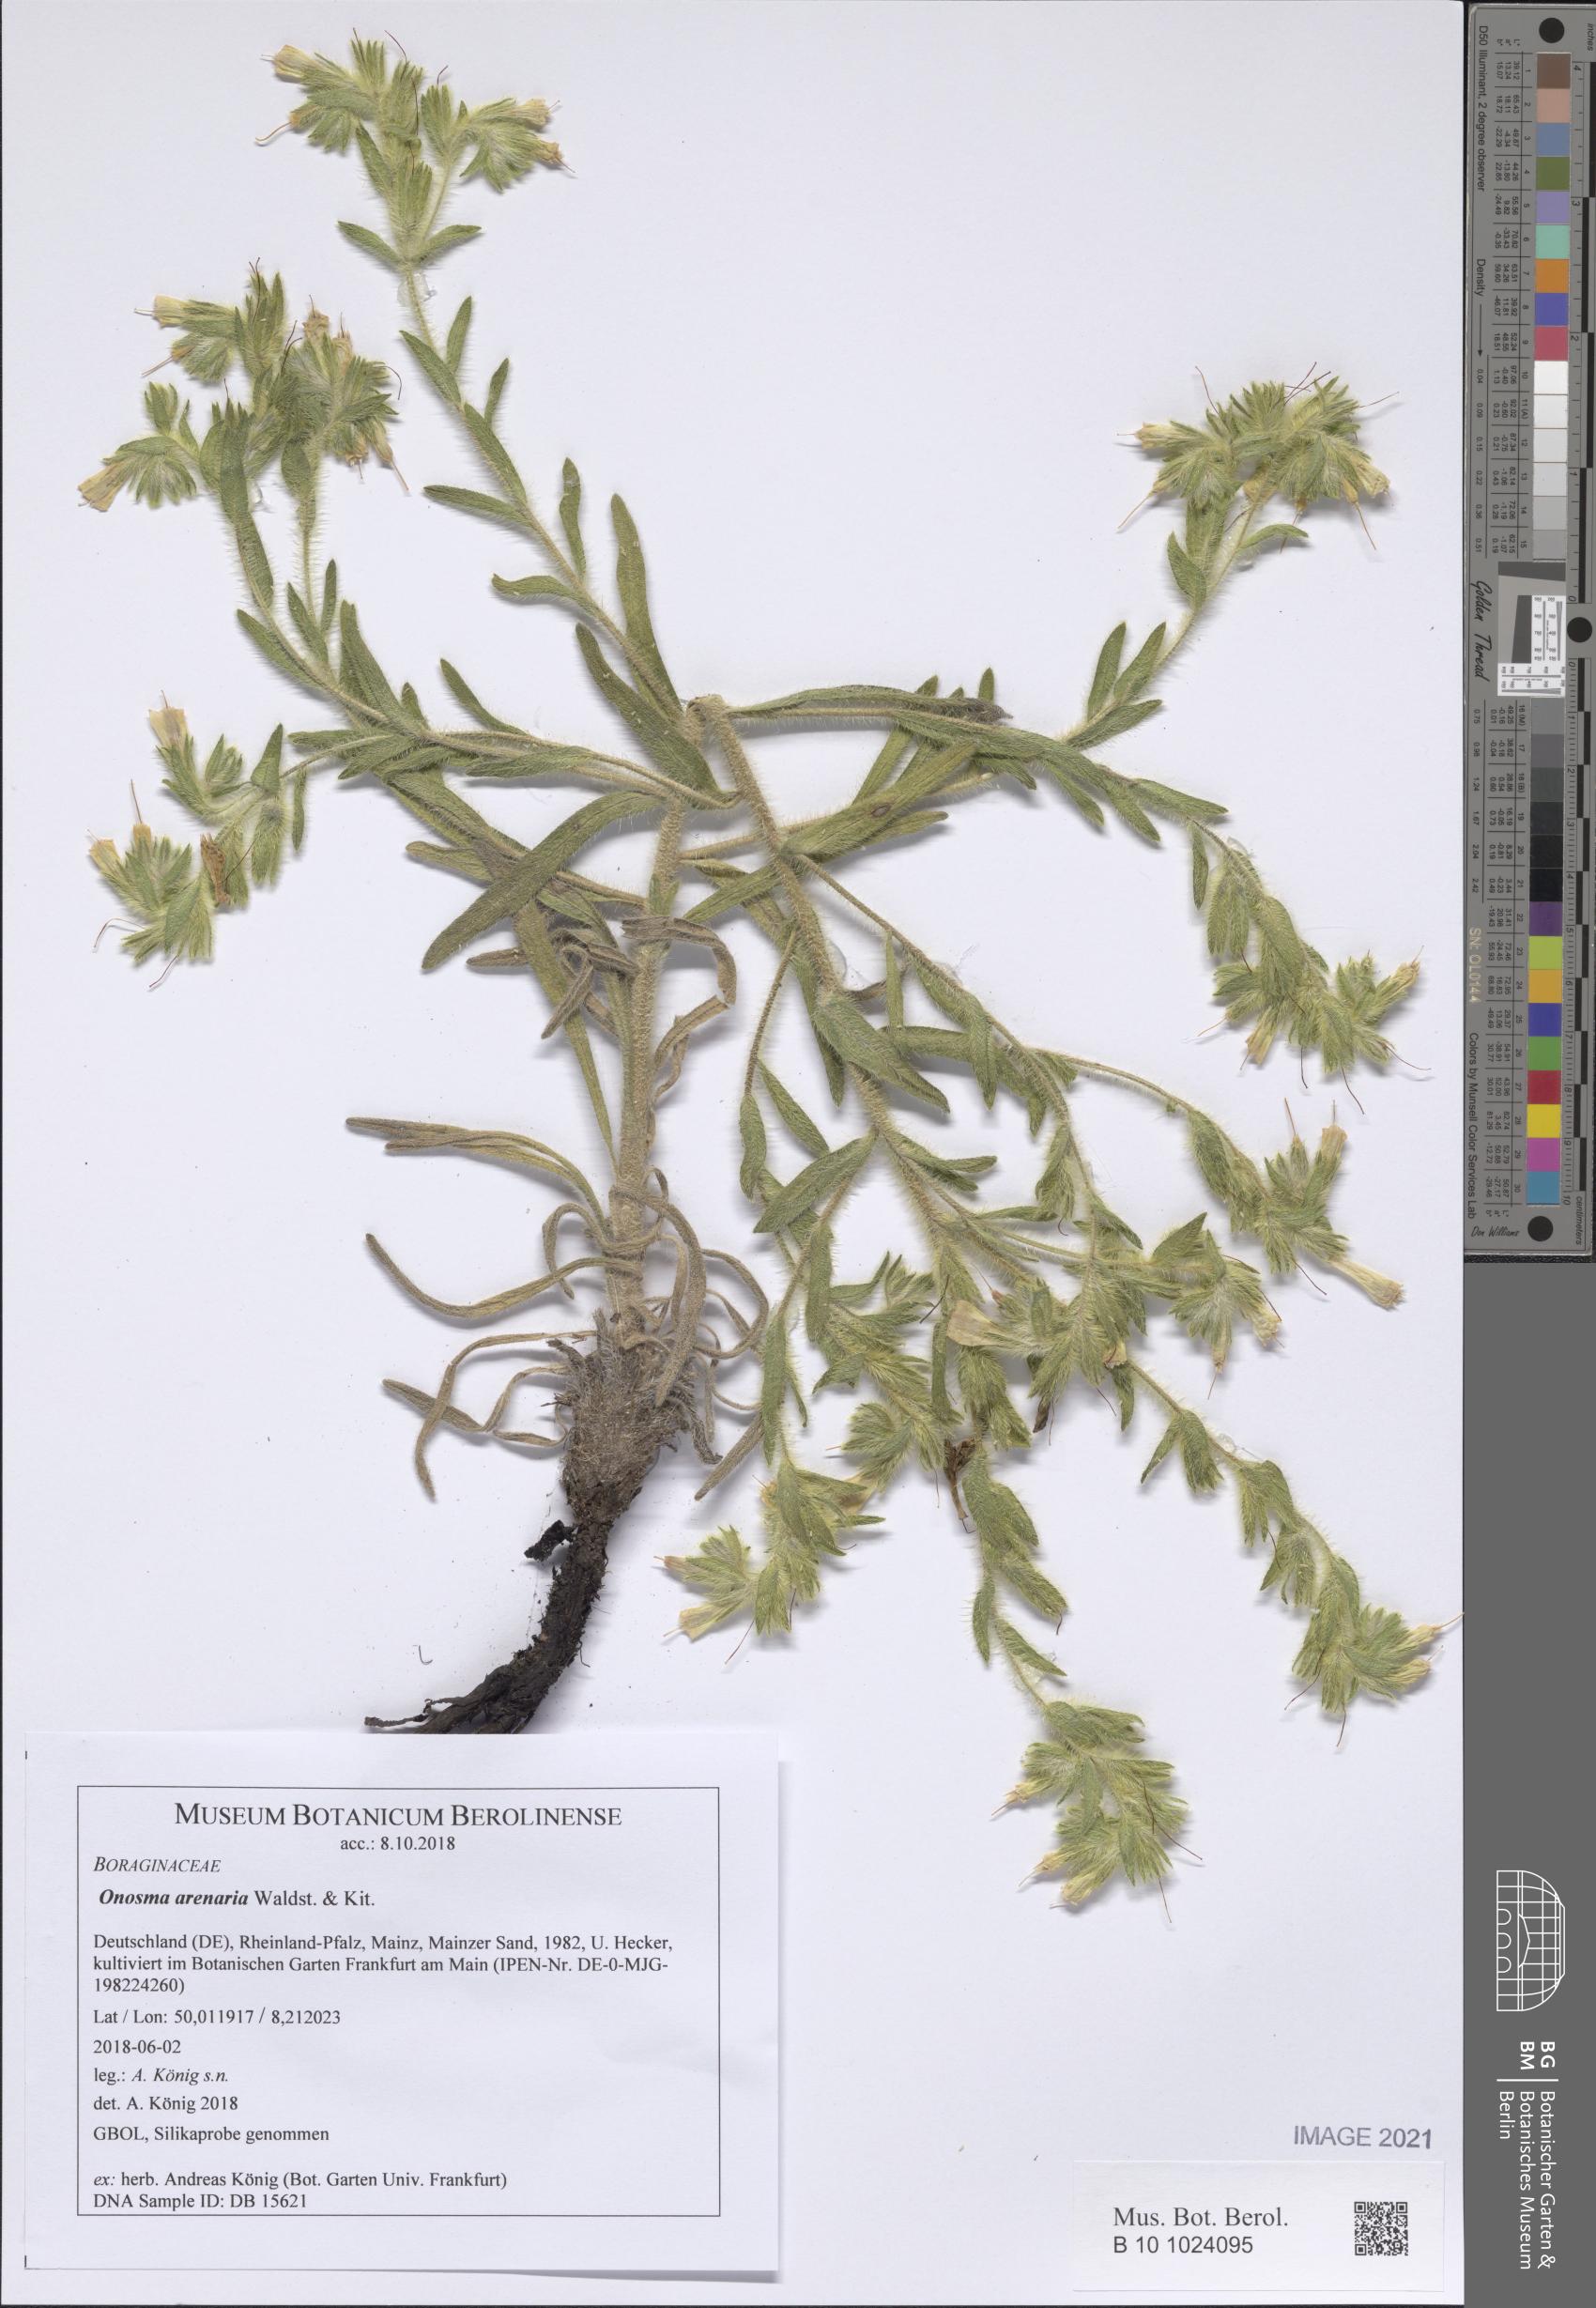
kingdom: Plantae
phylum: Tracheophyta
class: Magnoliopsida
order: Boraginales
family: Boraginaceae
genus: Onosma
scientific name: Onosma arenaria
